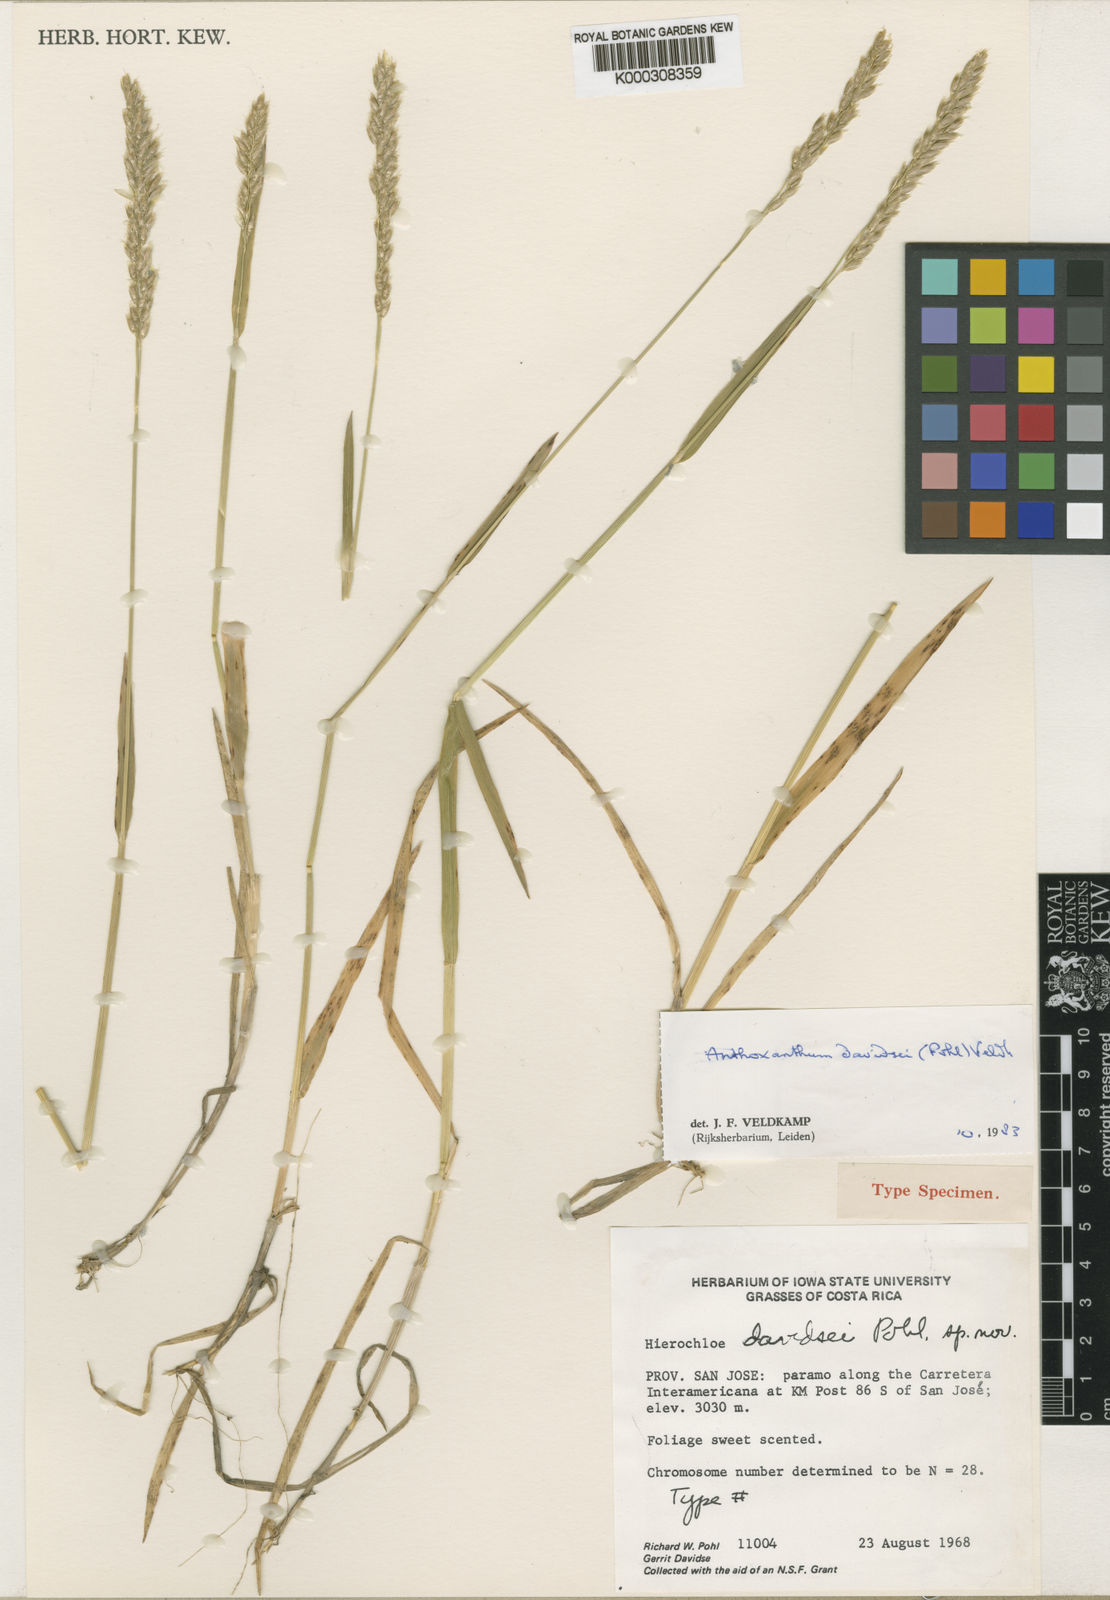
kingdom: Plantae
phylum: Tracheophyta
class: Liliopsida
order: Poales
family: Poaceae
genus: Anthoxanthum
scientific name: Anthoxanthum davidsei
